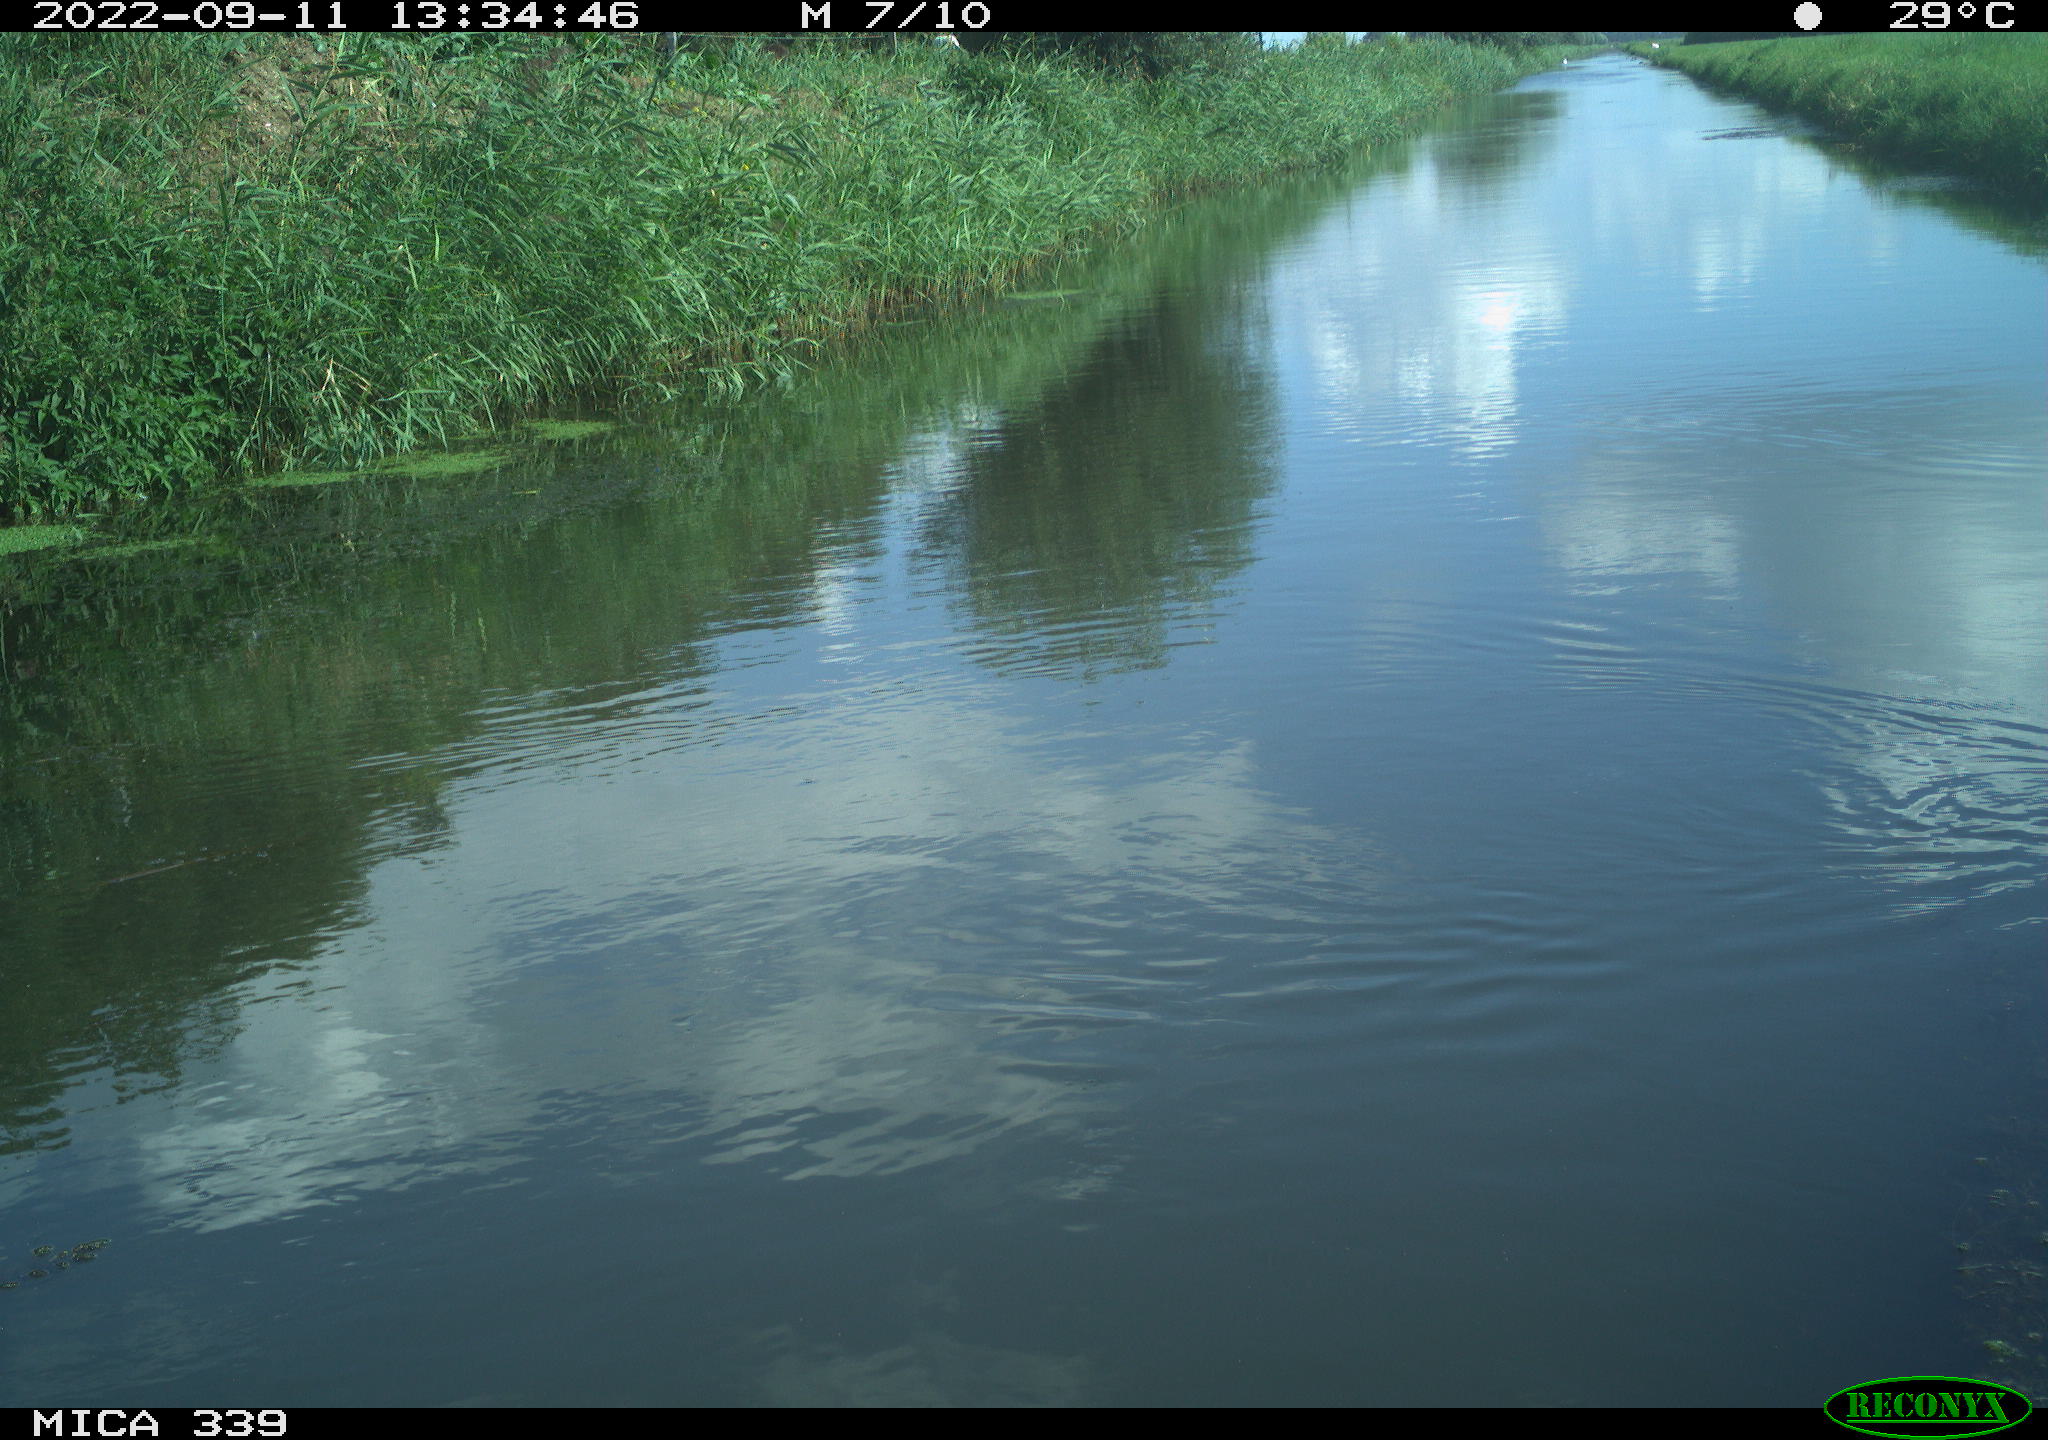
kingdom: Animalia
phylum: Chordata
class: Aves
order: Gruiformes
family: Rallidae
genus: Gallinula
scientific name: Gallinula chloropus
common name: Common moorhen
